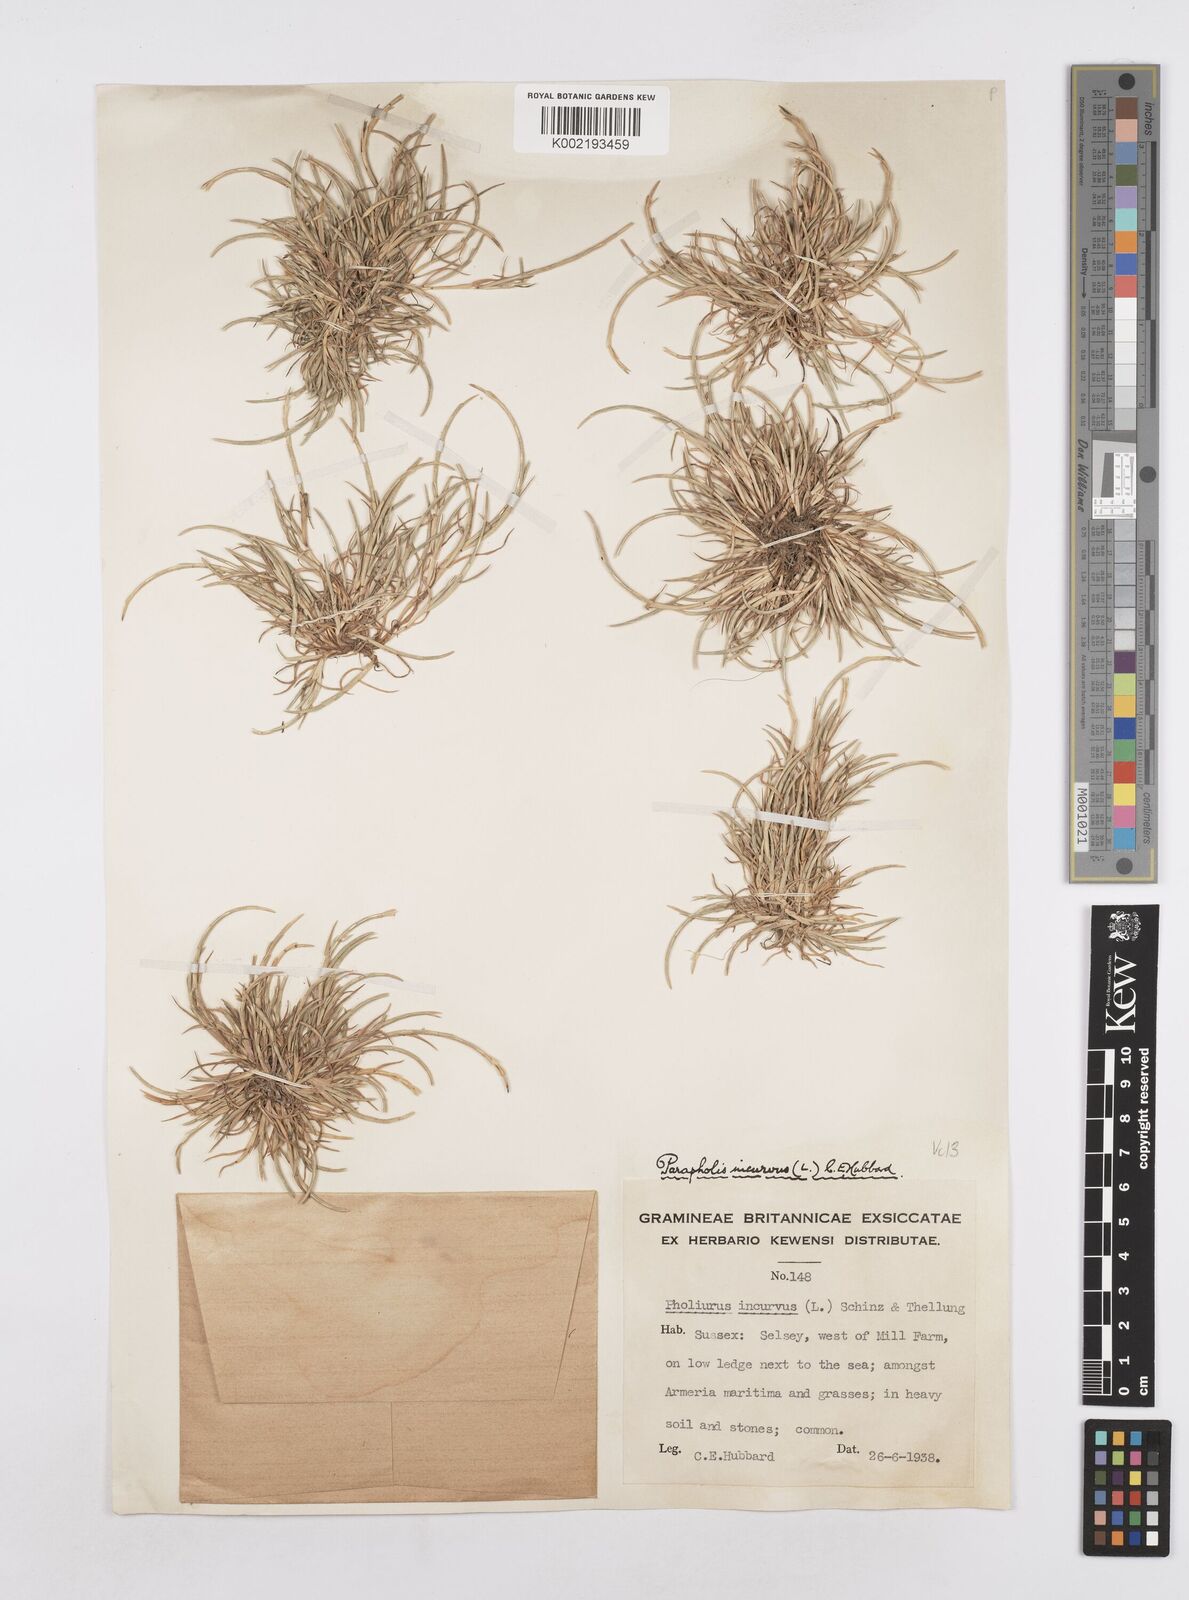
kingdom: Plantae
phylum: Tracheophyta
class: Liliopsida
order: Poales
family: Poaceae
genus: Parapholis
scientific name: Parapholis incurva
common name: Curved sicklegrass
